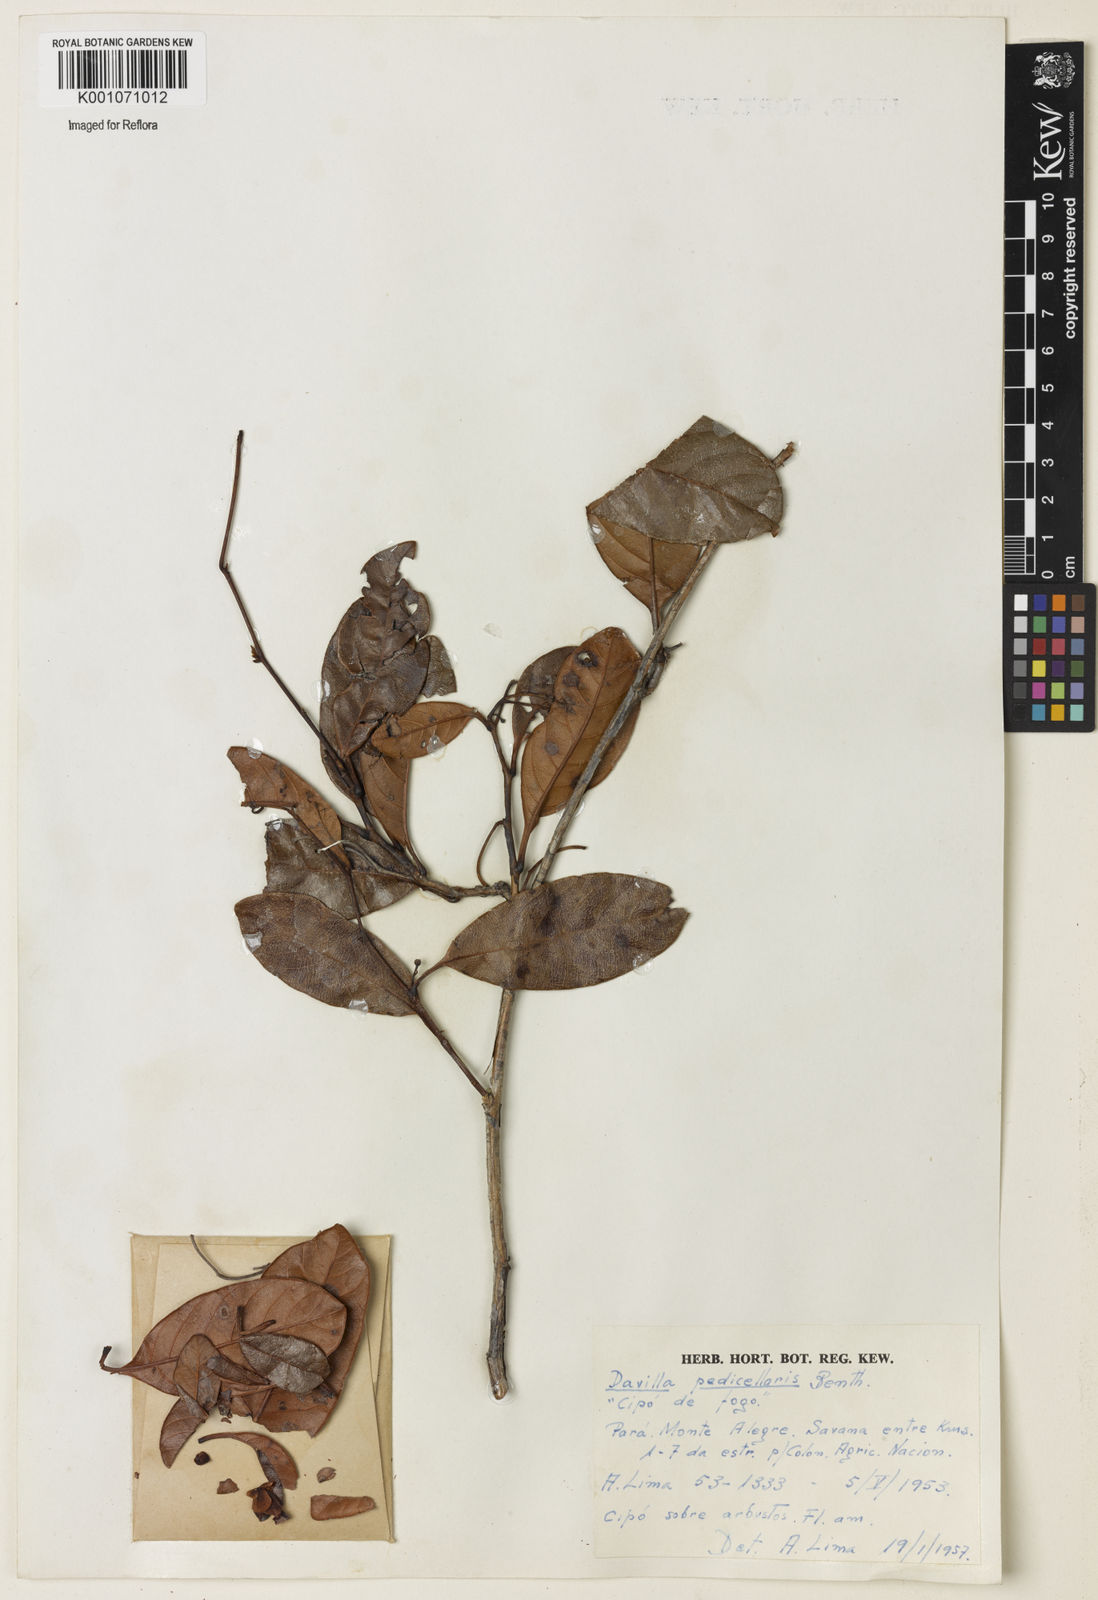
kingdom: Plantae
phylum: Tracheophyta
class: Magnoliopsida
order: Dilleniales
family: Dilleniaceae
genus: Davilla
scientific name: Davilla pedicellaris
